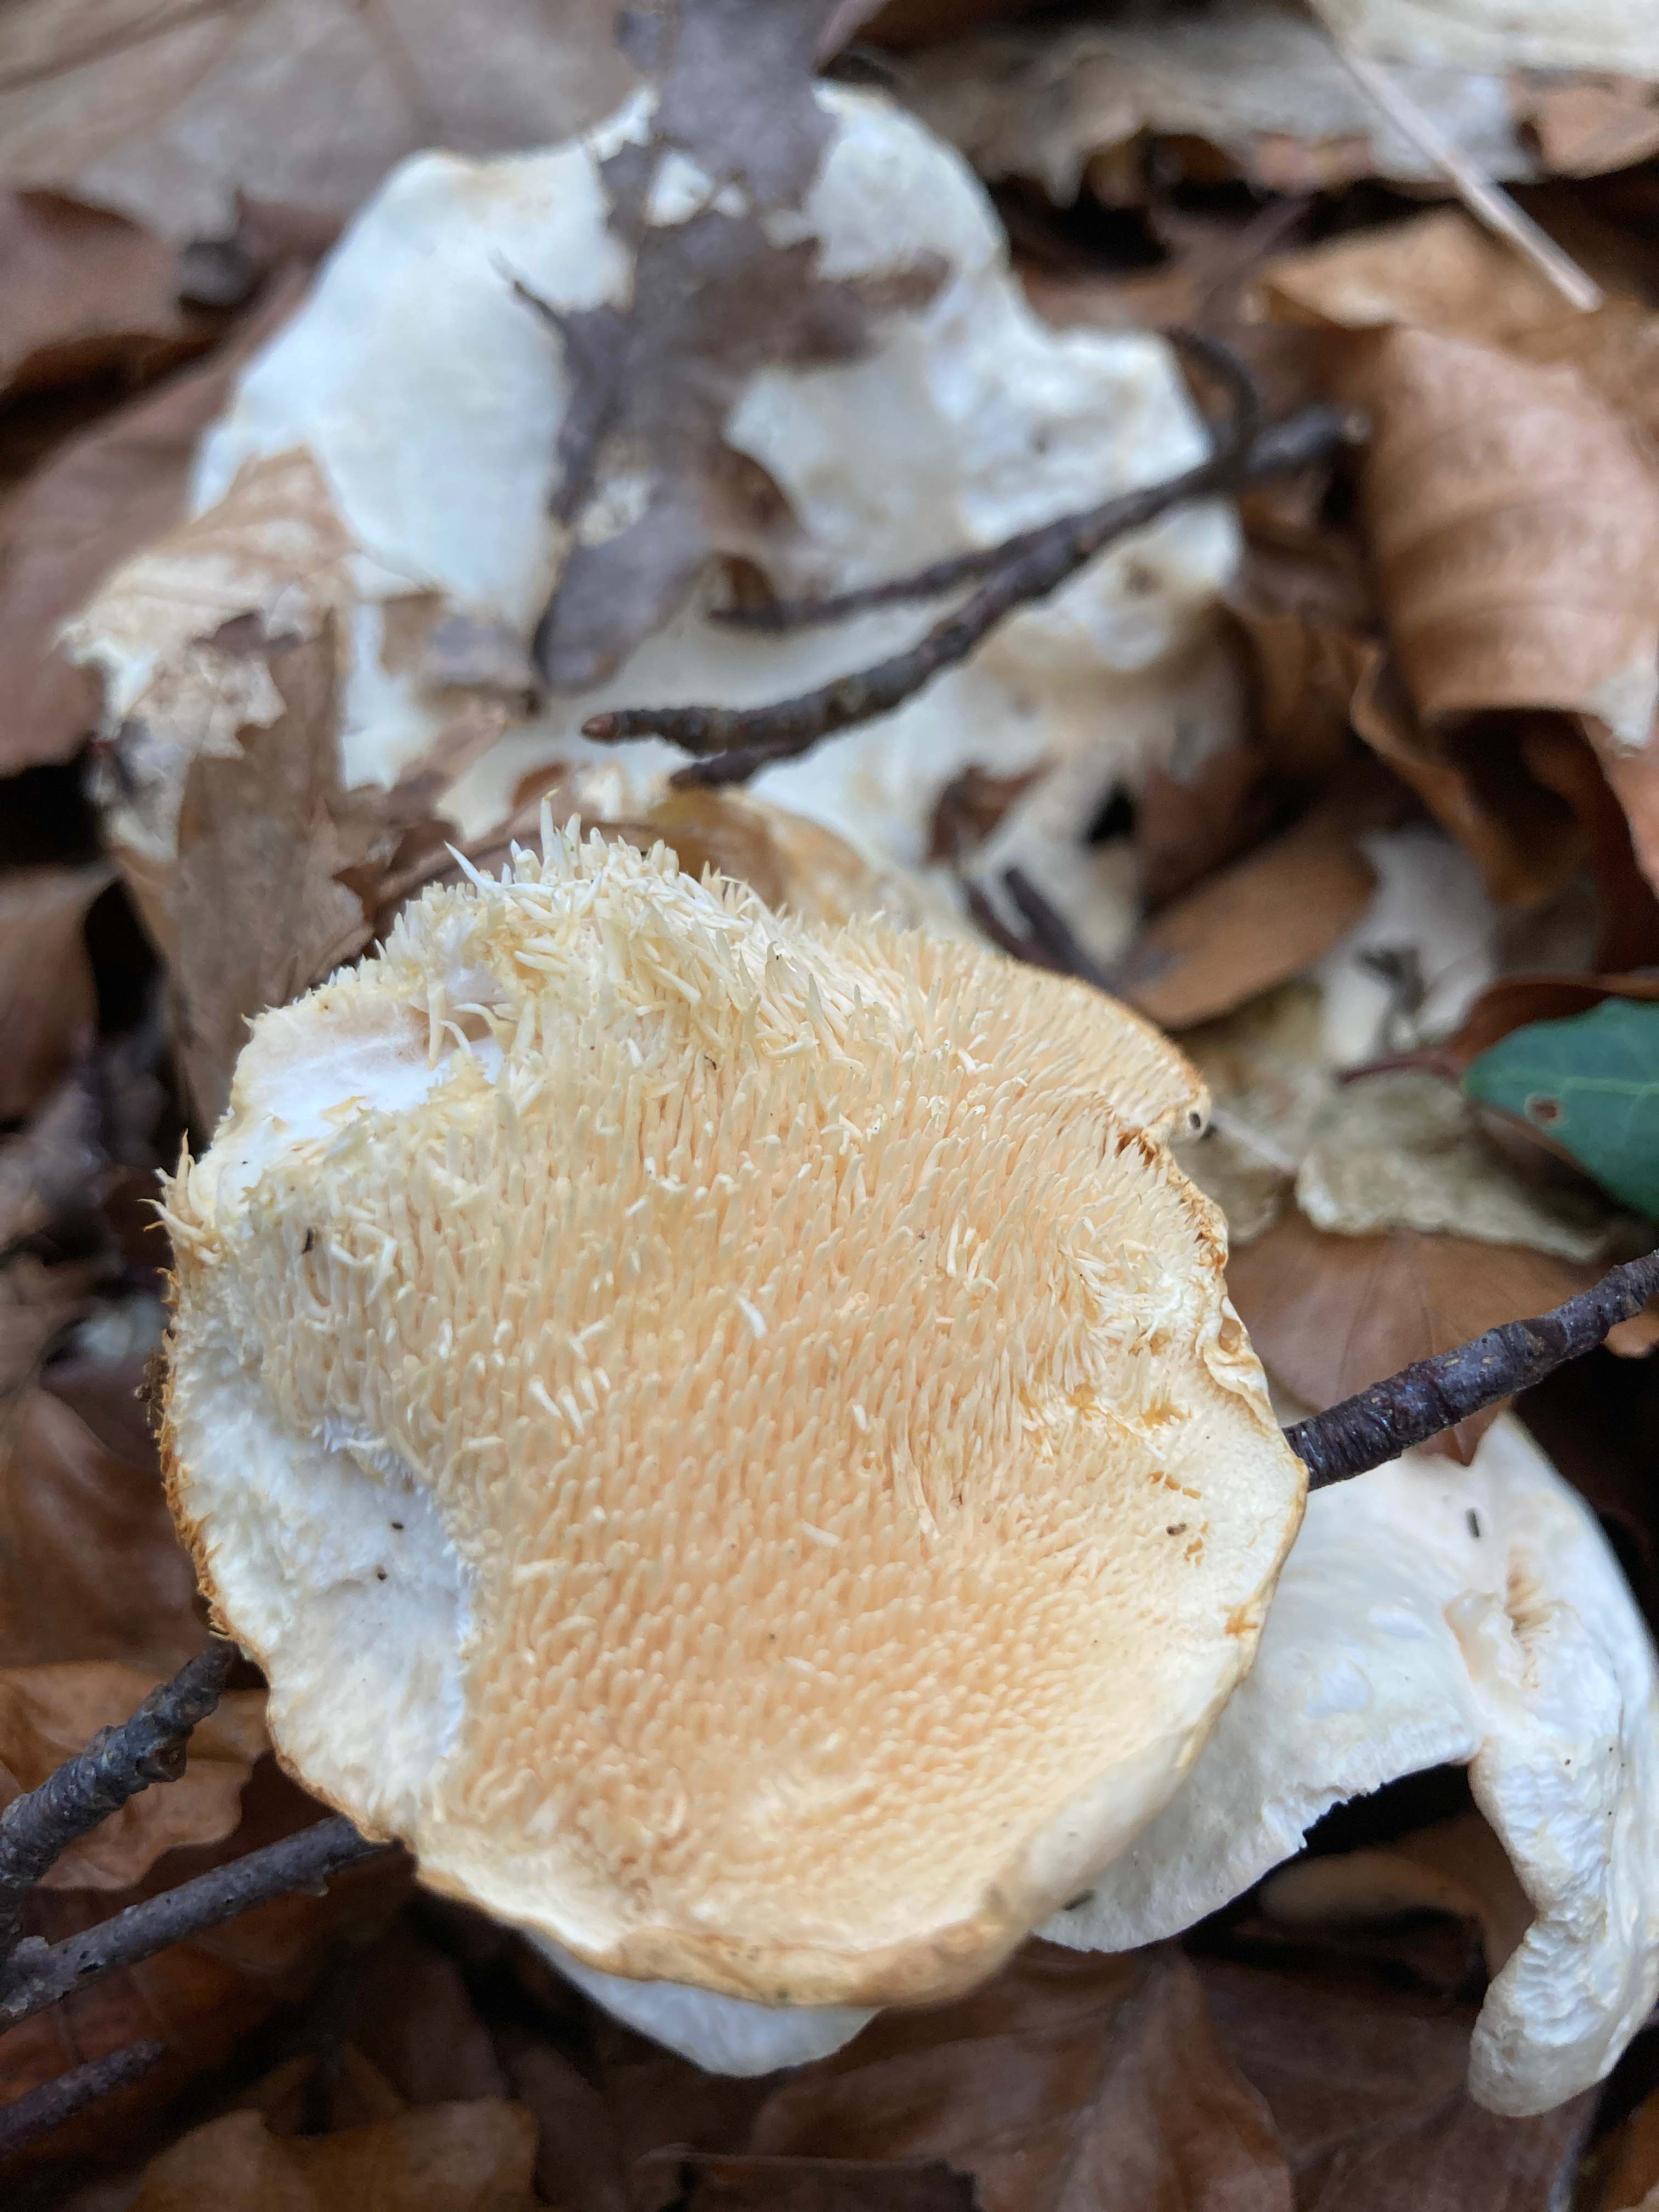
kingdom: Fungi
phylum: Basidiomycota
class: Agaricomycetes
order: Cantharellales
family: Hydnaceae
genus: Hydnum
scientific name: Hydnum repandum
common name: almindelig pigsvamp
